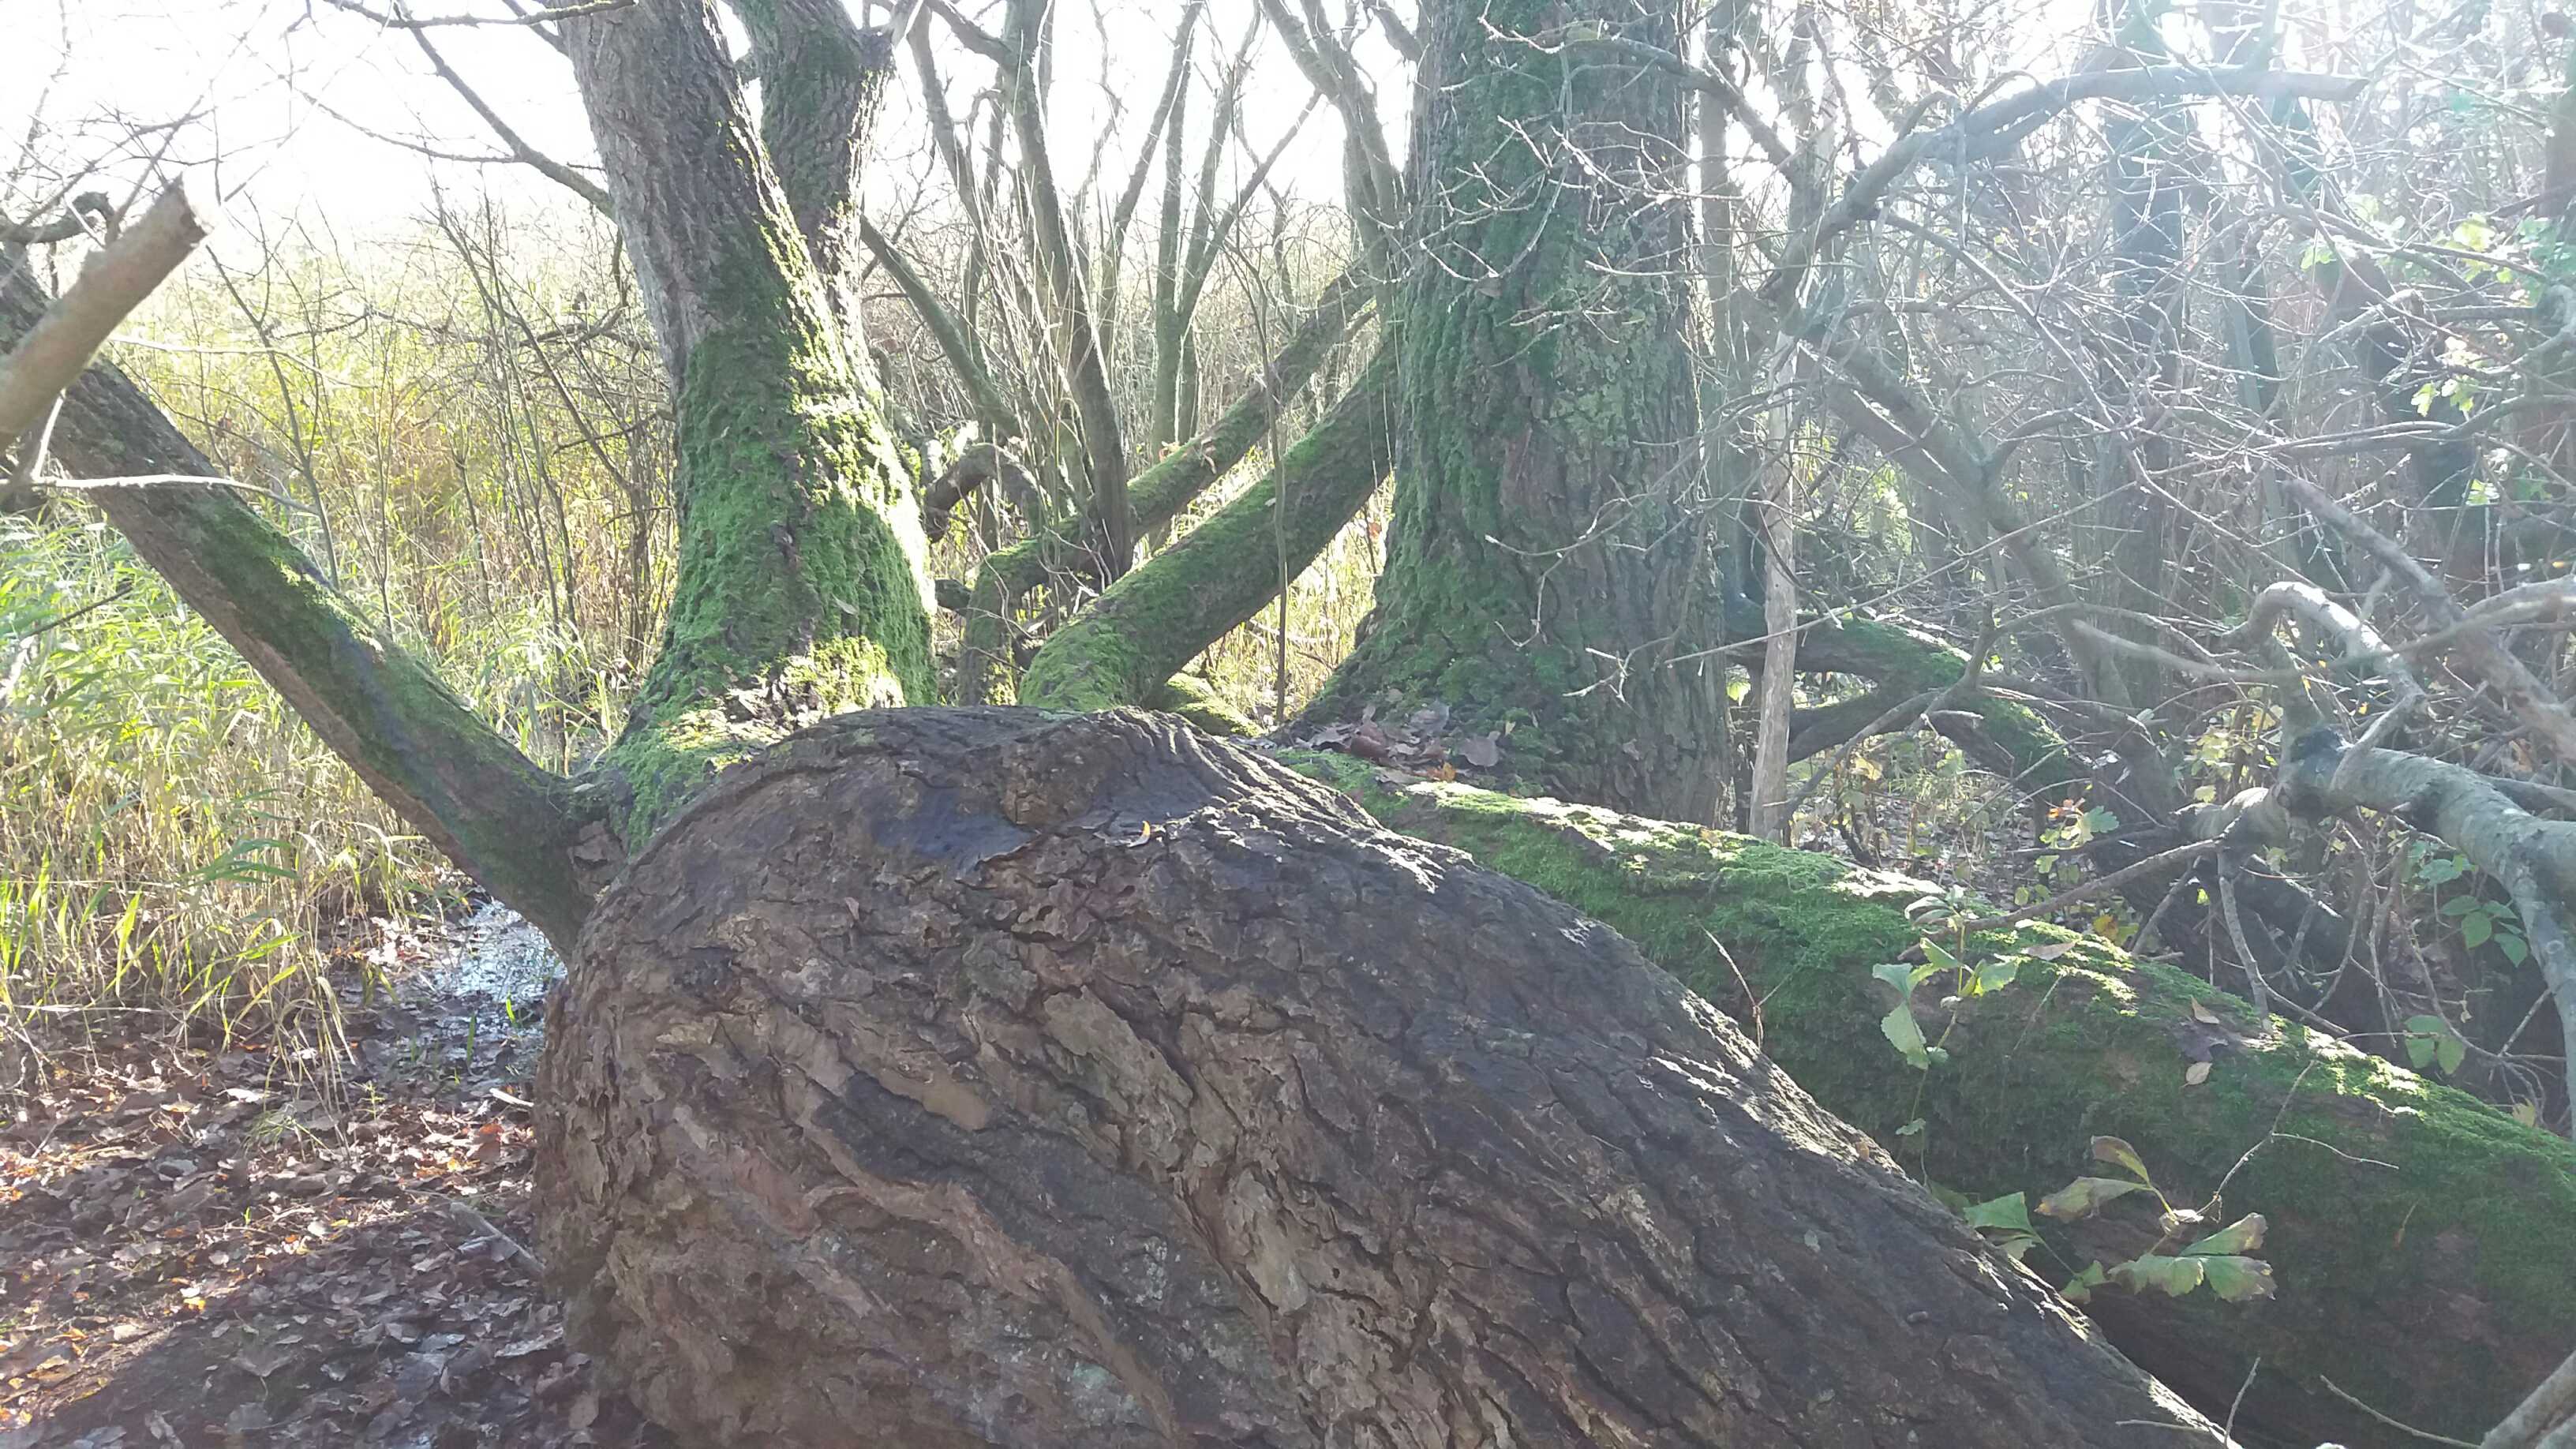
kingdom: Fungi
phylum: Basidiomycota
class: Agaricomycetes
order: Agaricales
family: Porotheleaceae
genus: Phloeomana
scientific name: Phloeomana hiemalis
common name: sen huesvamp
